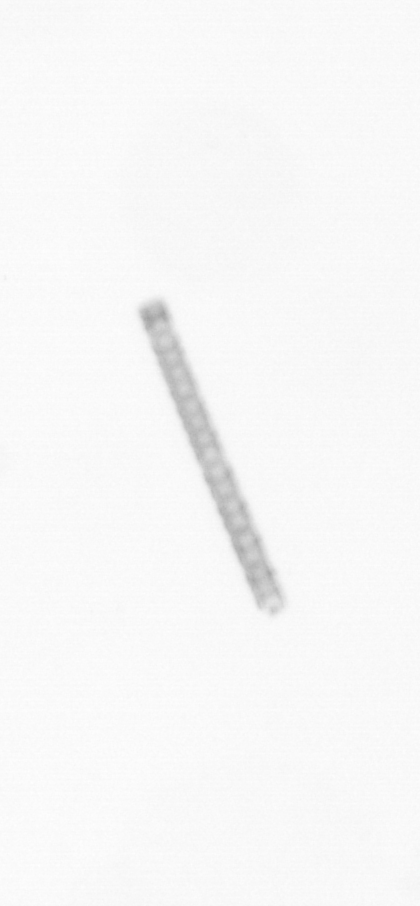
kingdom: Chromista
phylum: Ochrophyta
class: Bacillariophyceae
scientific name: Bacillariophyceae
